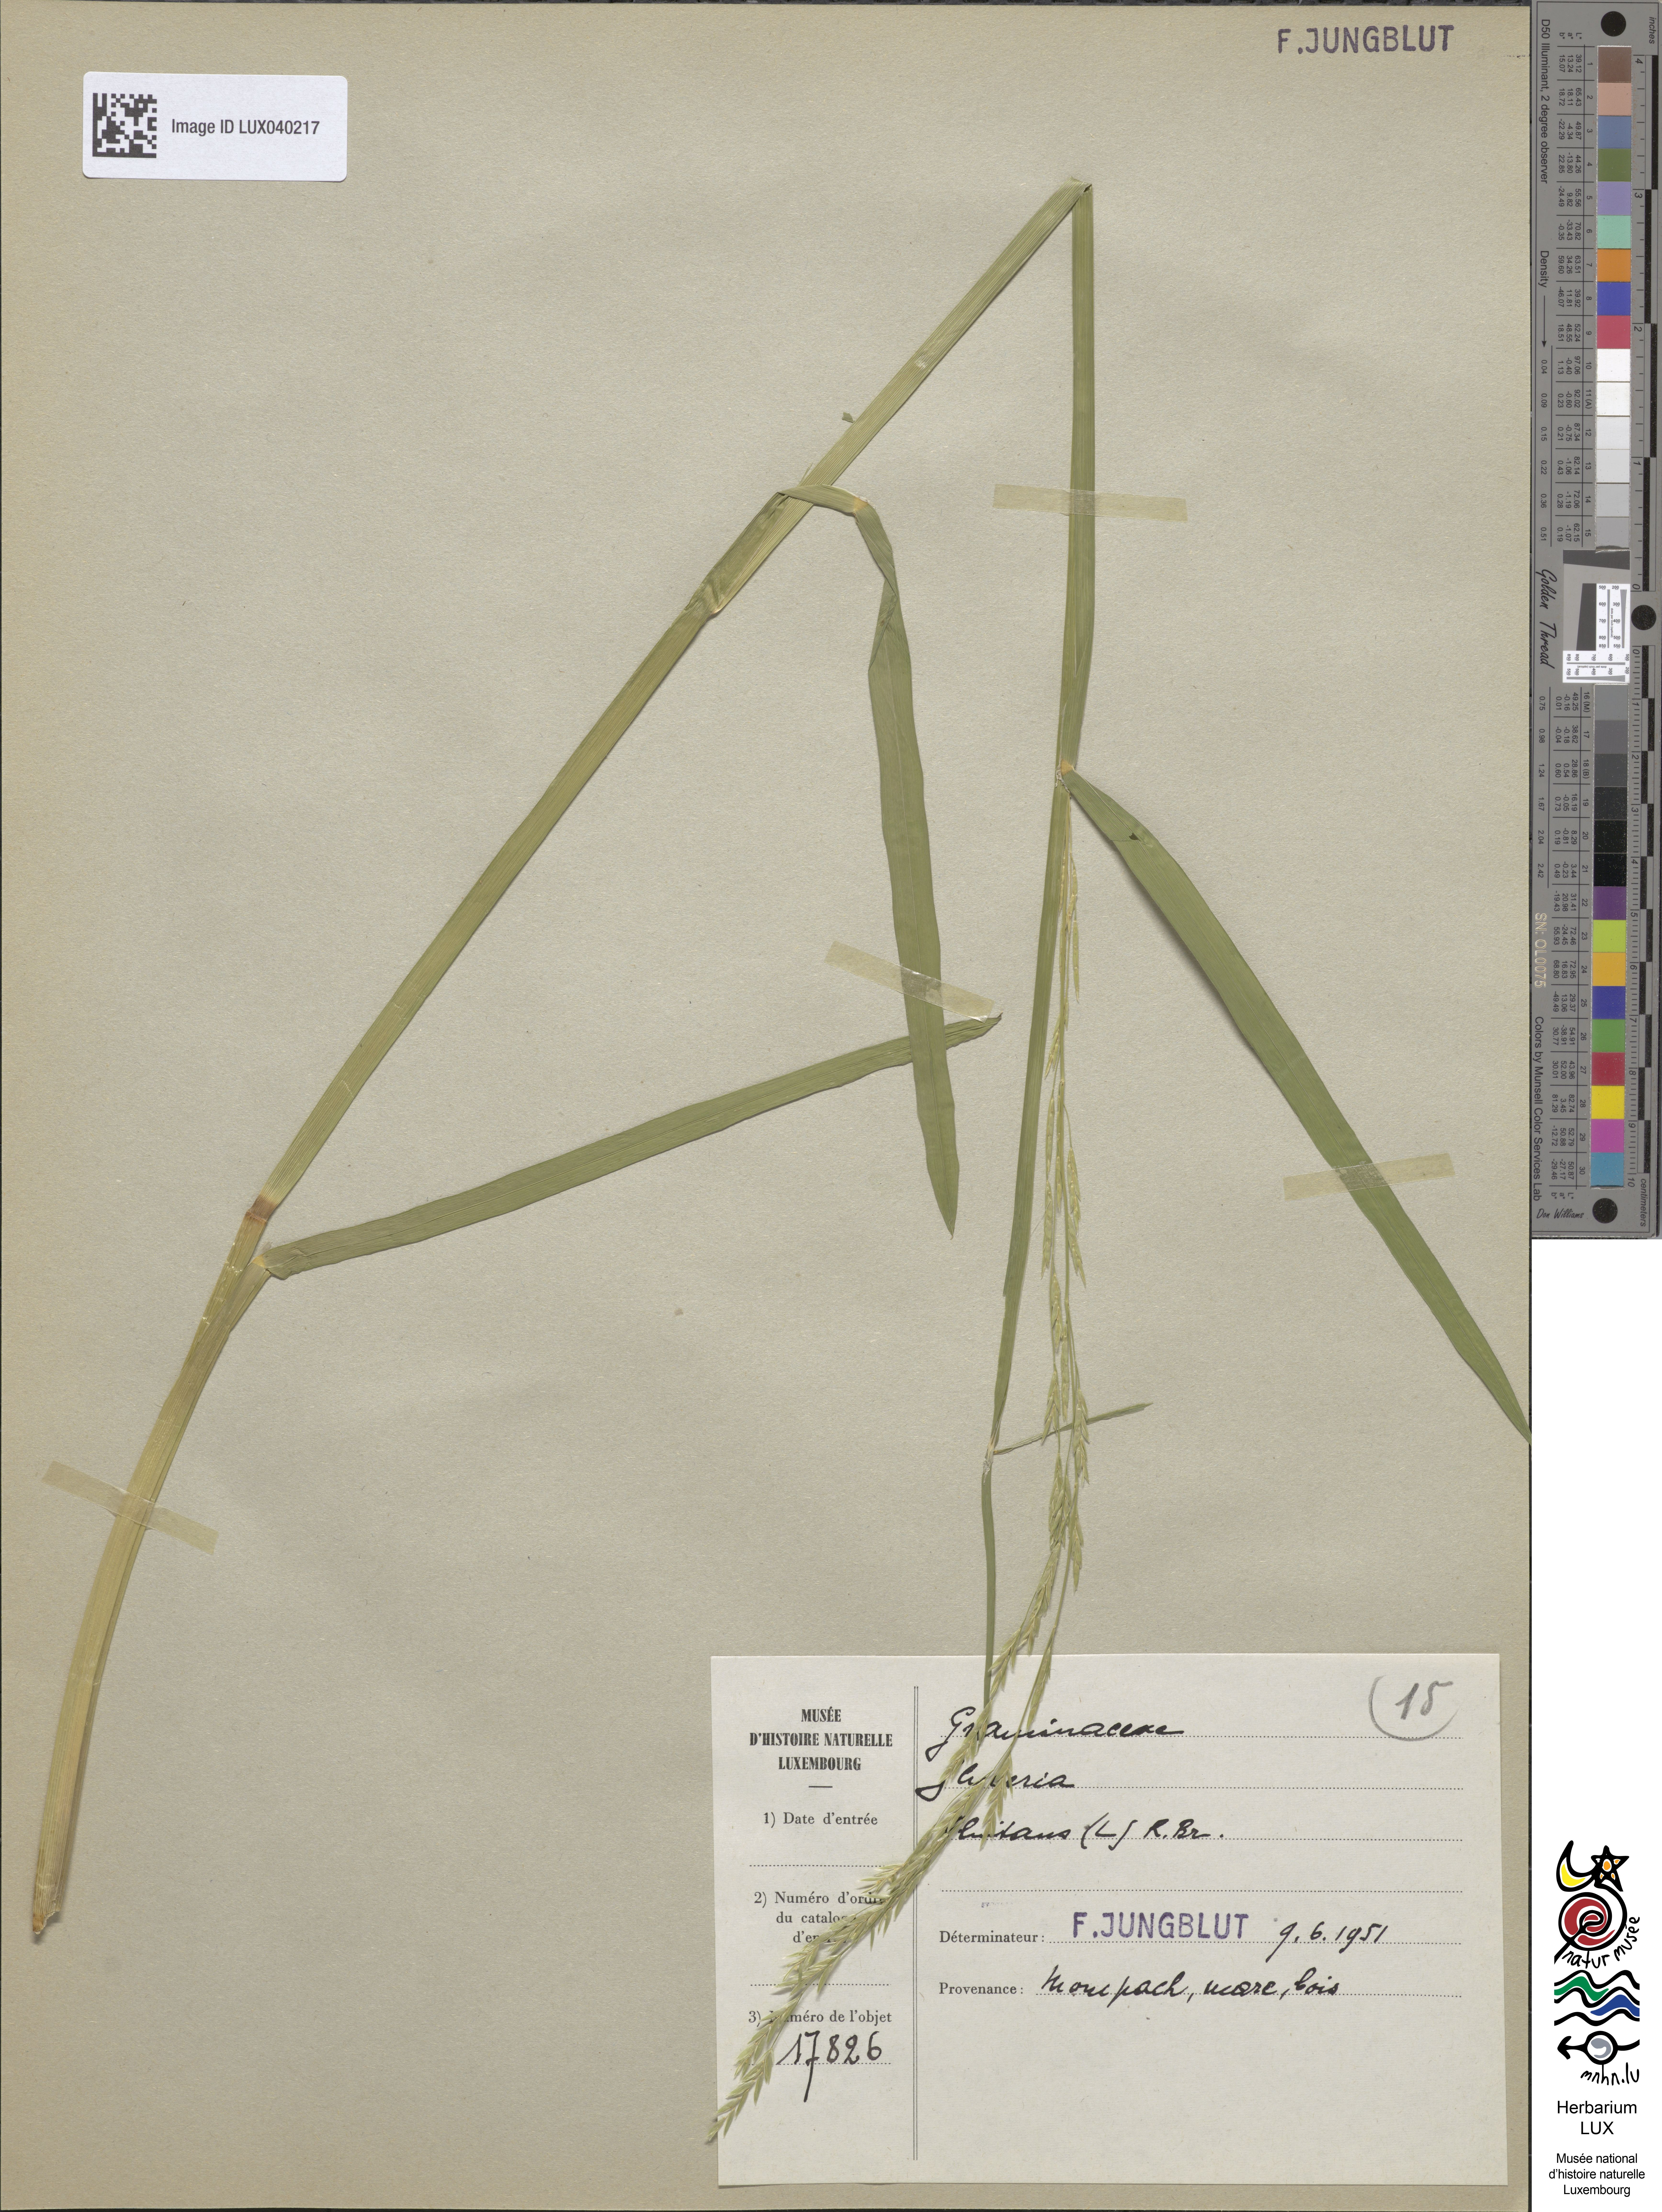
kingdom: Plantae
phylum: Tracheophyta
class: Liliopsida
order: Poales
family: Poaceae
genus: Glyceria
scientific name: Glyceria fluitans
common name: Floating sweet-grass
